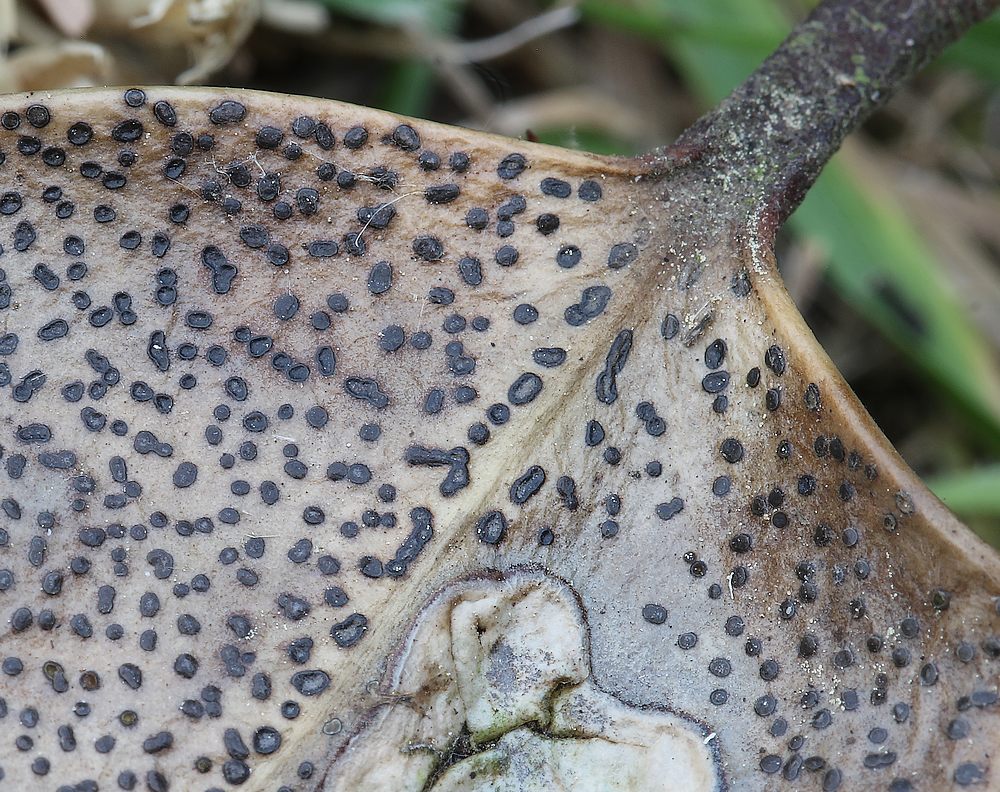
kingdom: Fungi
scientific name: Fungi
